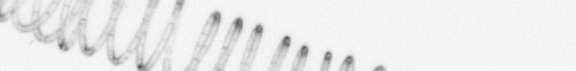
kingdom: Chromista
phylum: Ochrophyta
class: Bacillariophyceae
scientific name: Bacillariophyceae
